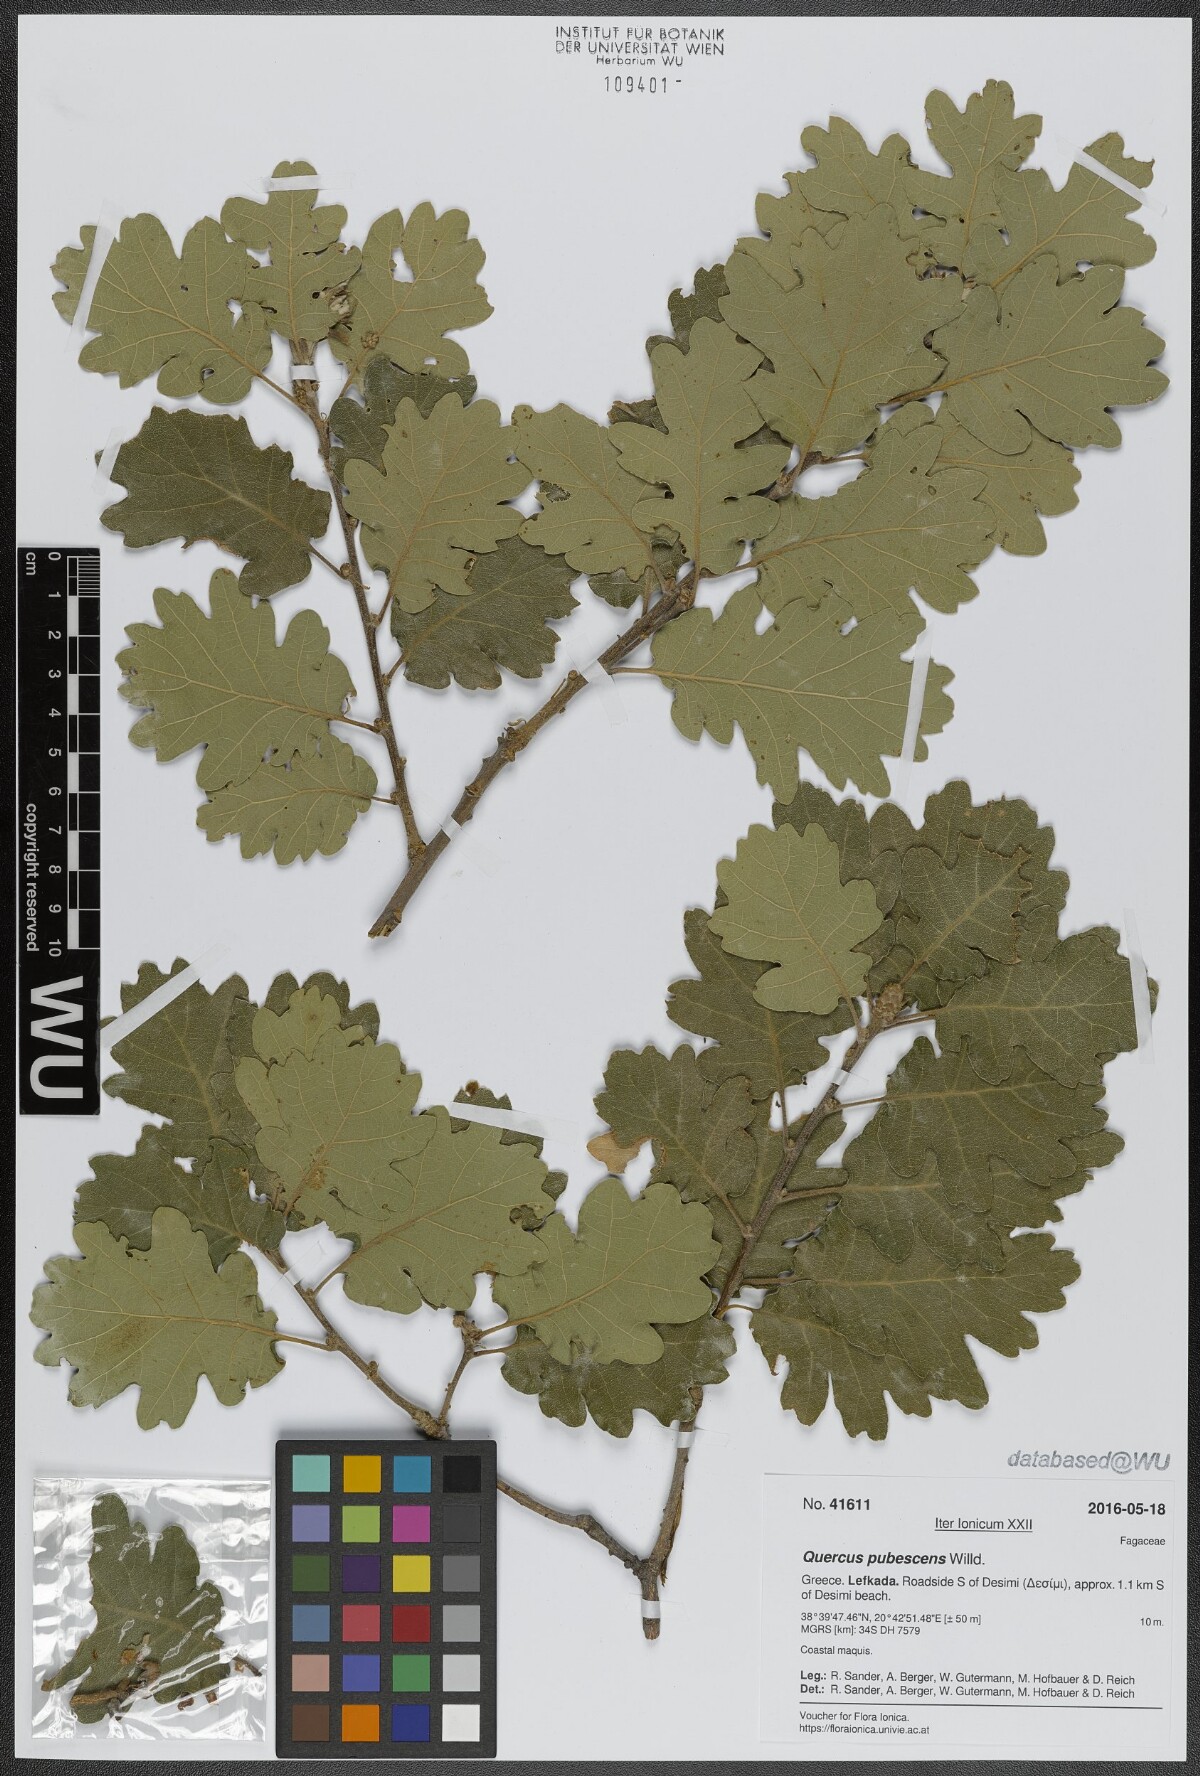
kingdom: Plantae
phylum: Tracheophyta
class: Magnoliopsida
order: Fagales
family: Fagaceae
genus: Quercus
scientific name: Quercus pubescens
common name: Downy oak
